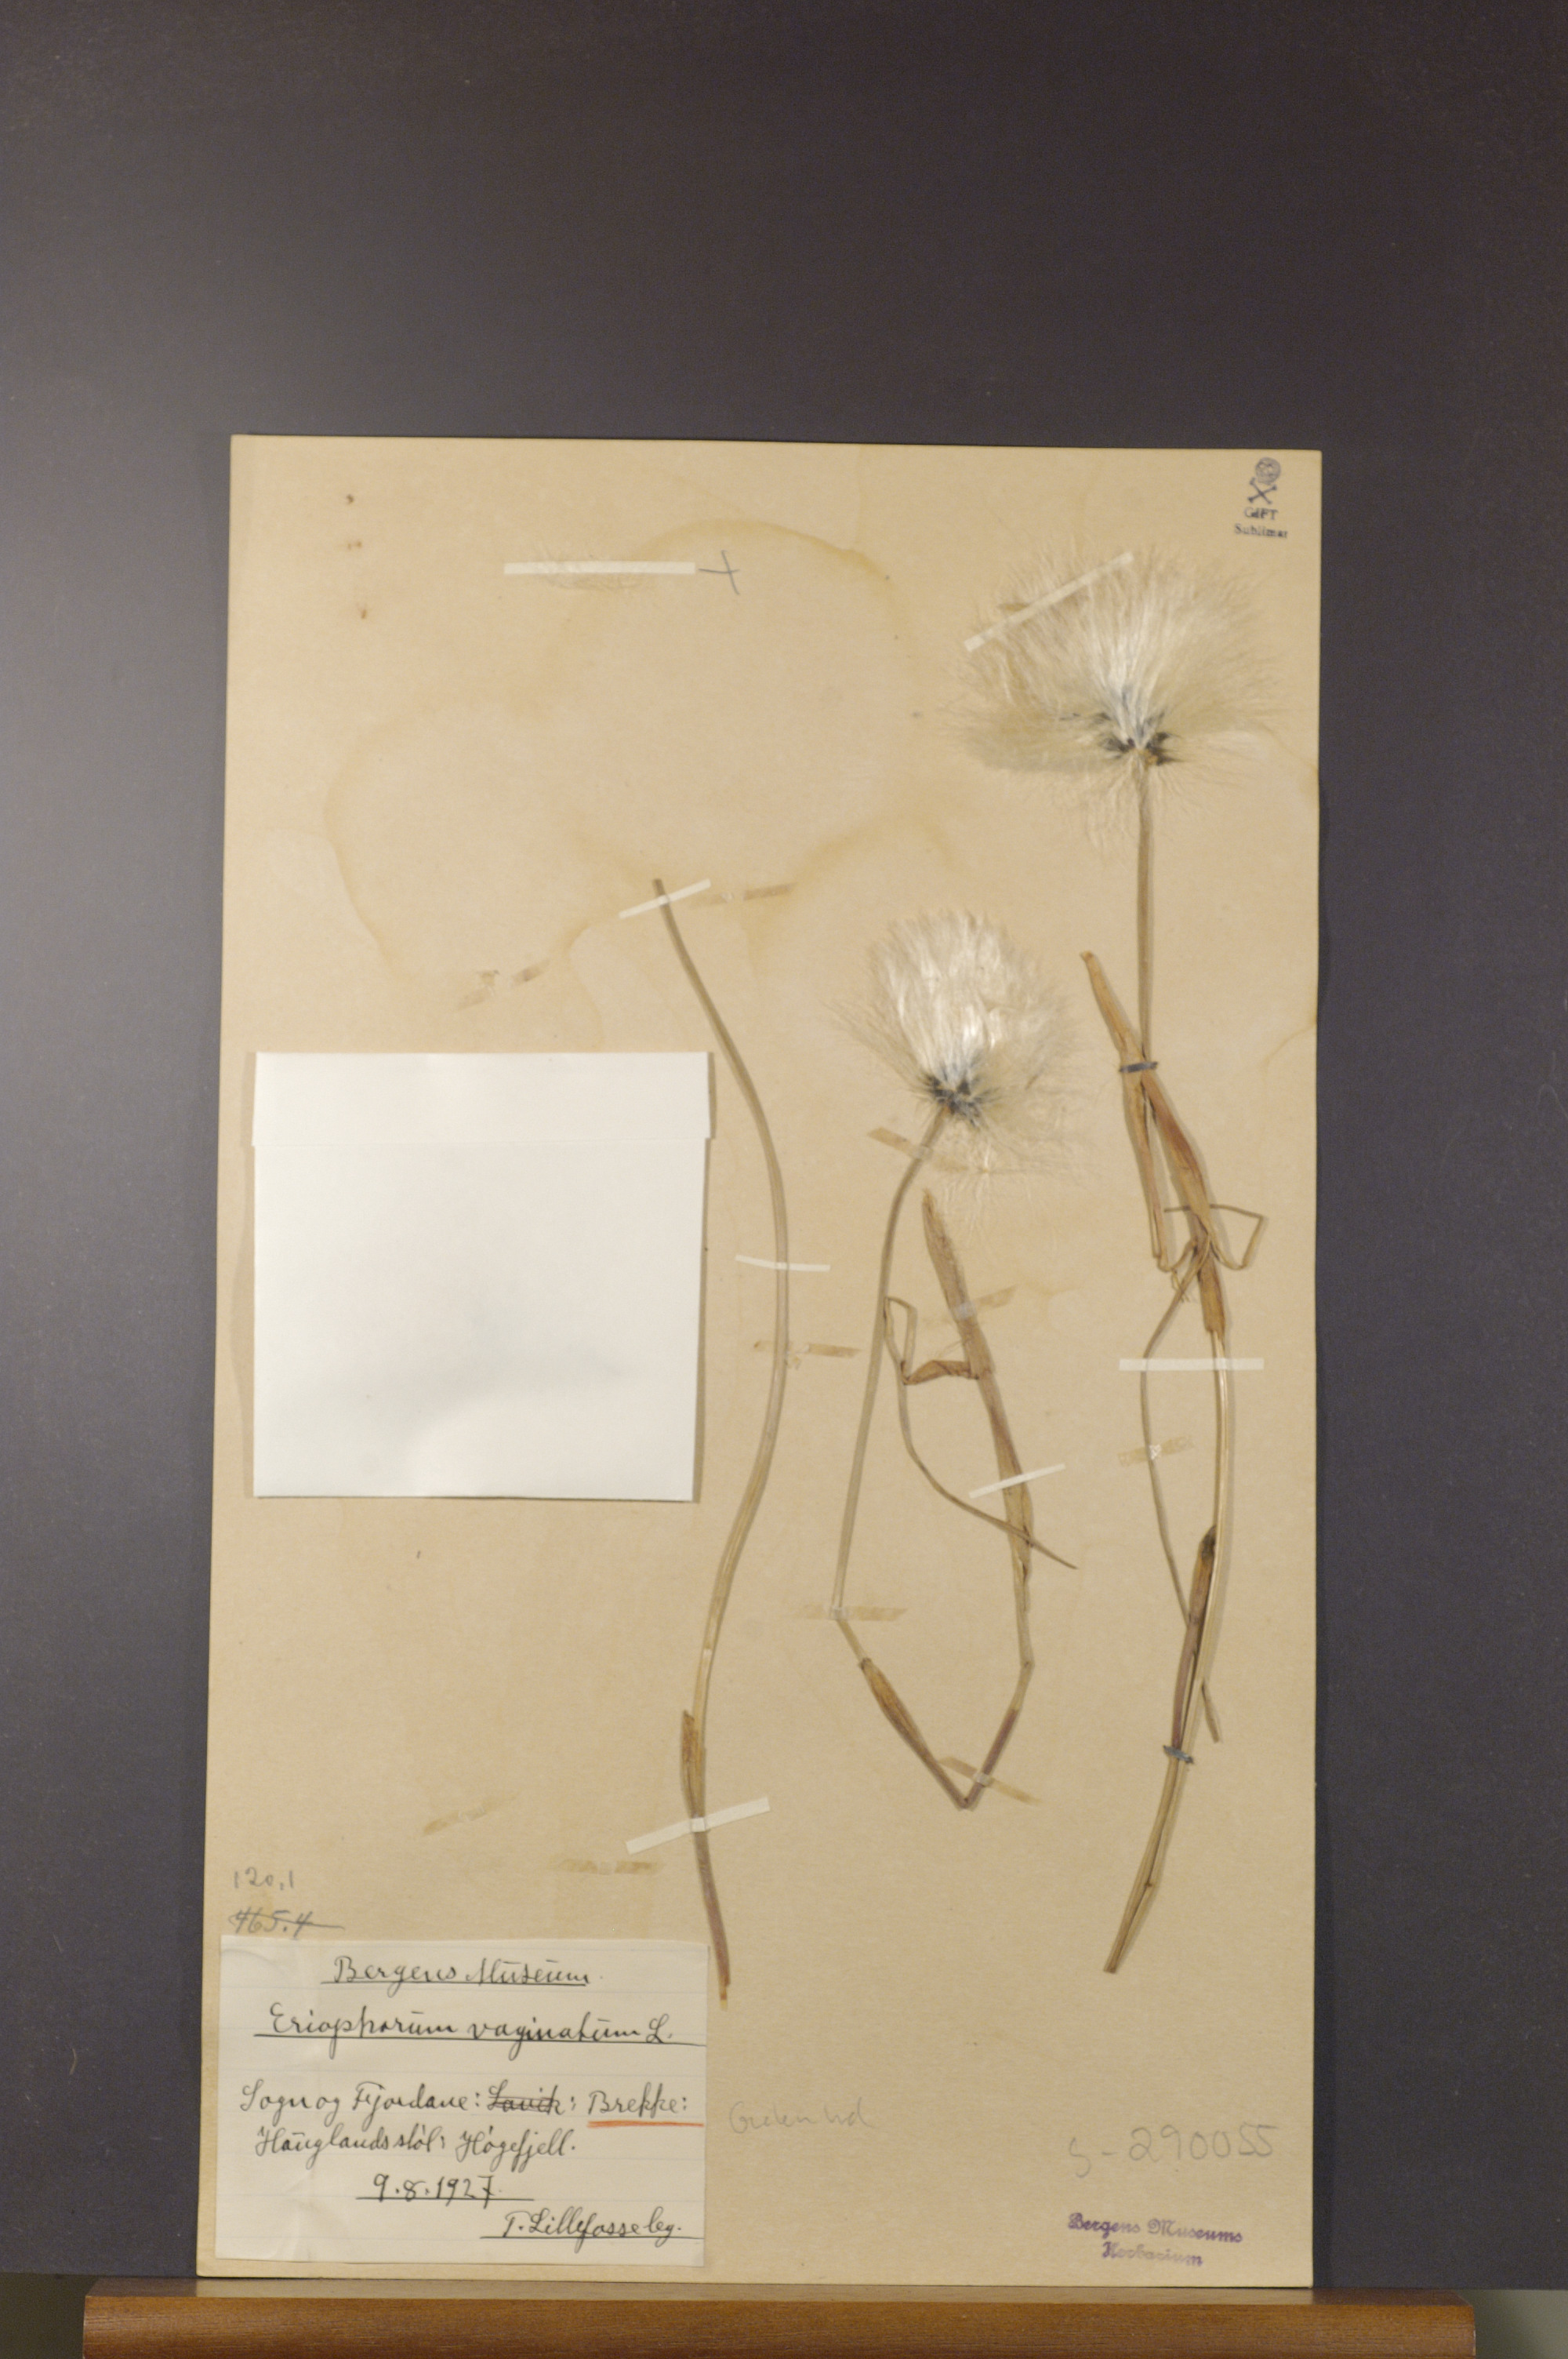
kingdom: Plantae
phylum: Tracheophyta
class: Liliopsida
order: Poales
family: Cyperaceae
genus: Eriophorum
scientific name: Eriophorum vaginatum
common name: Hare's-tail cottongrass
